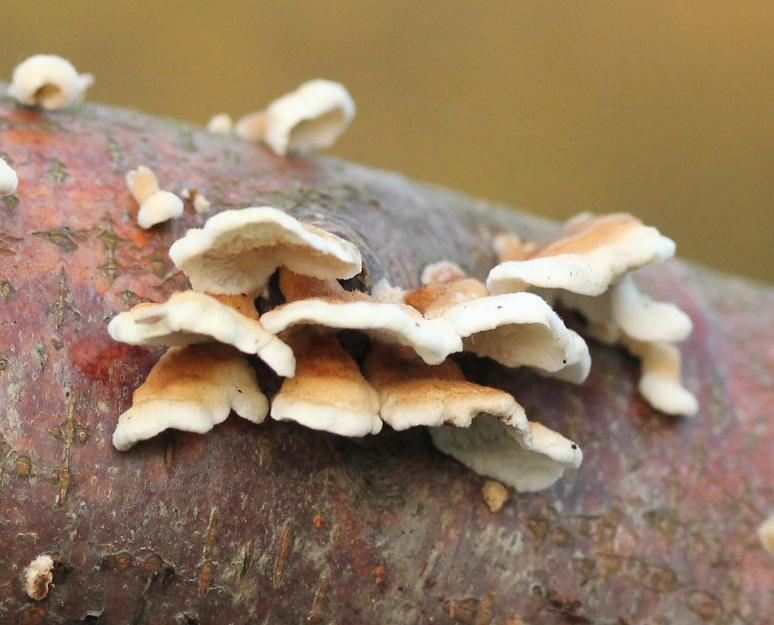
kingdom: Fungi
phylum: Basidiomycota
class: Agaricomycetes
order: Amylocorticiales
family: Amylocorticiaceae
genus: Plicaturopsis
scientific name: Plicaturopsis crispa
